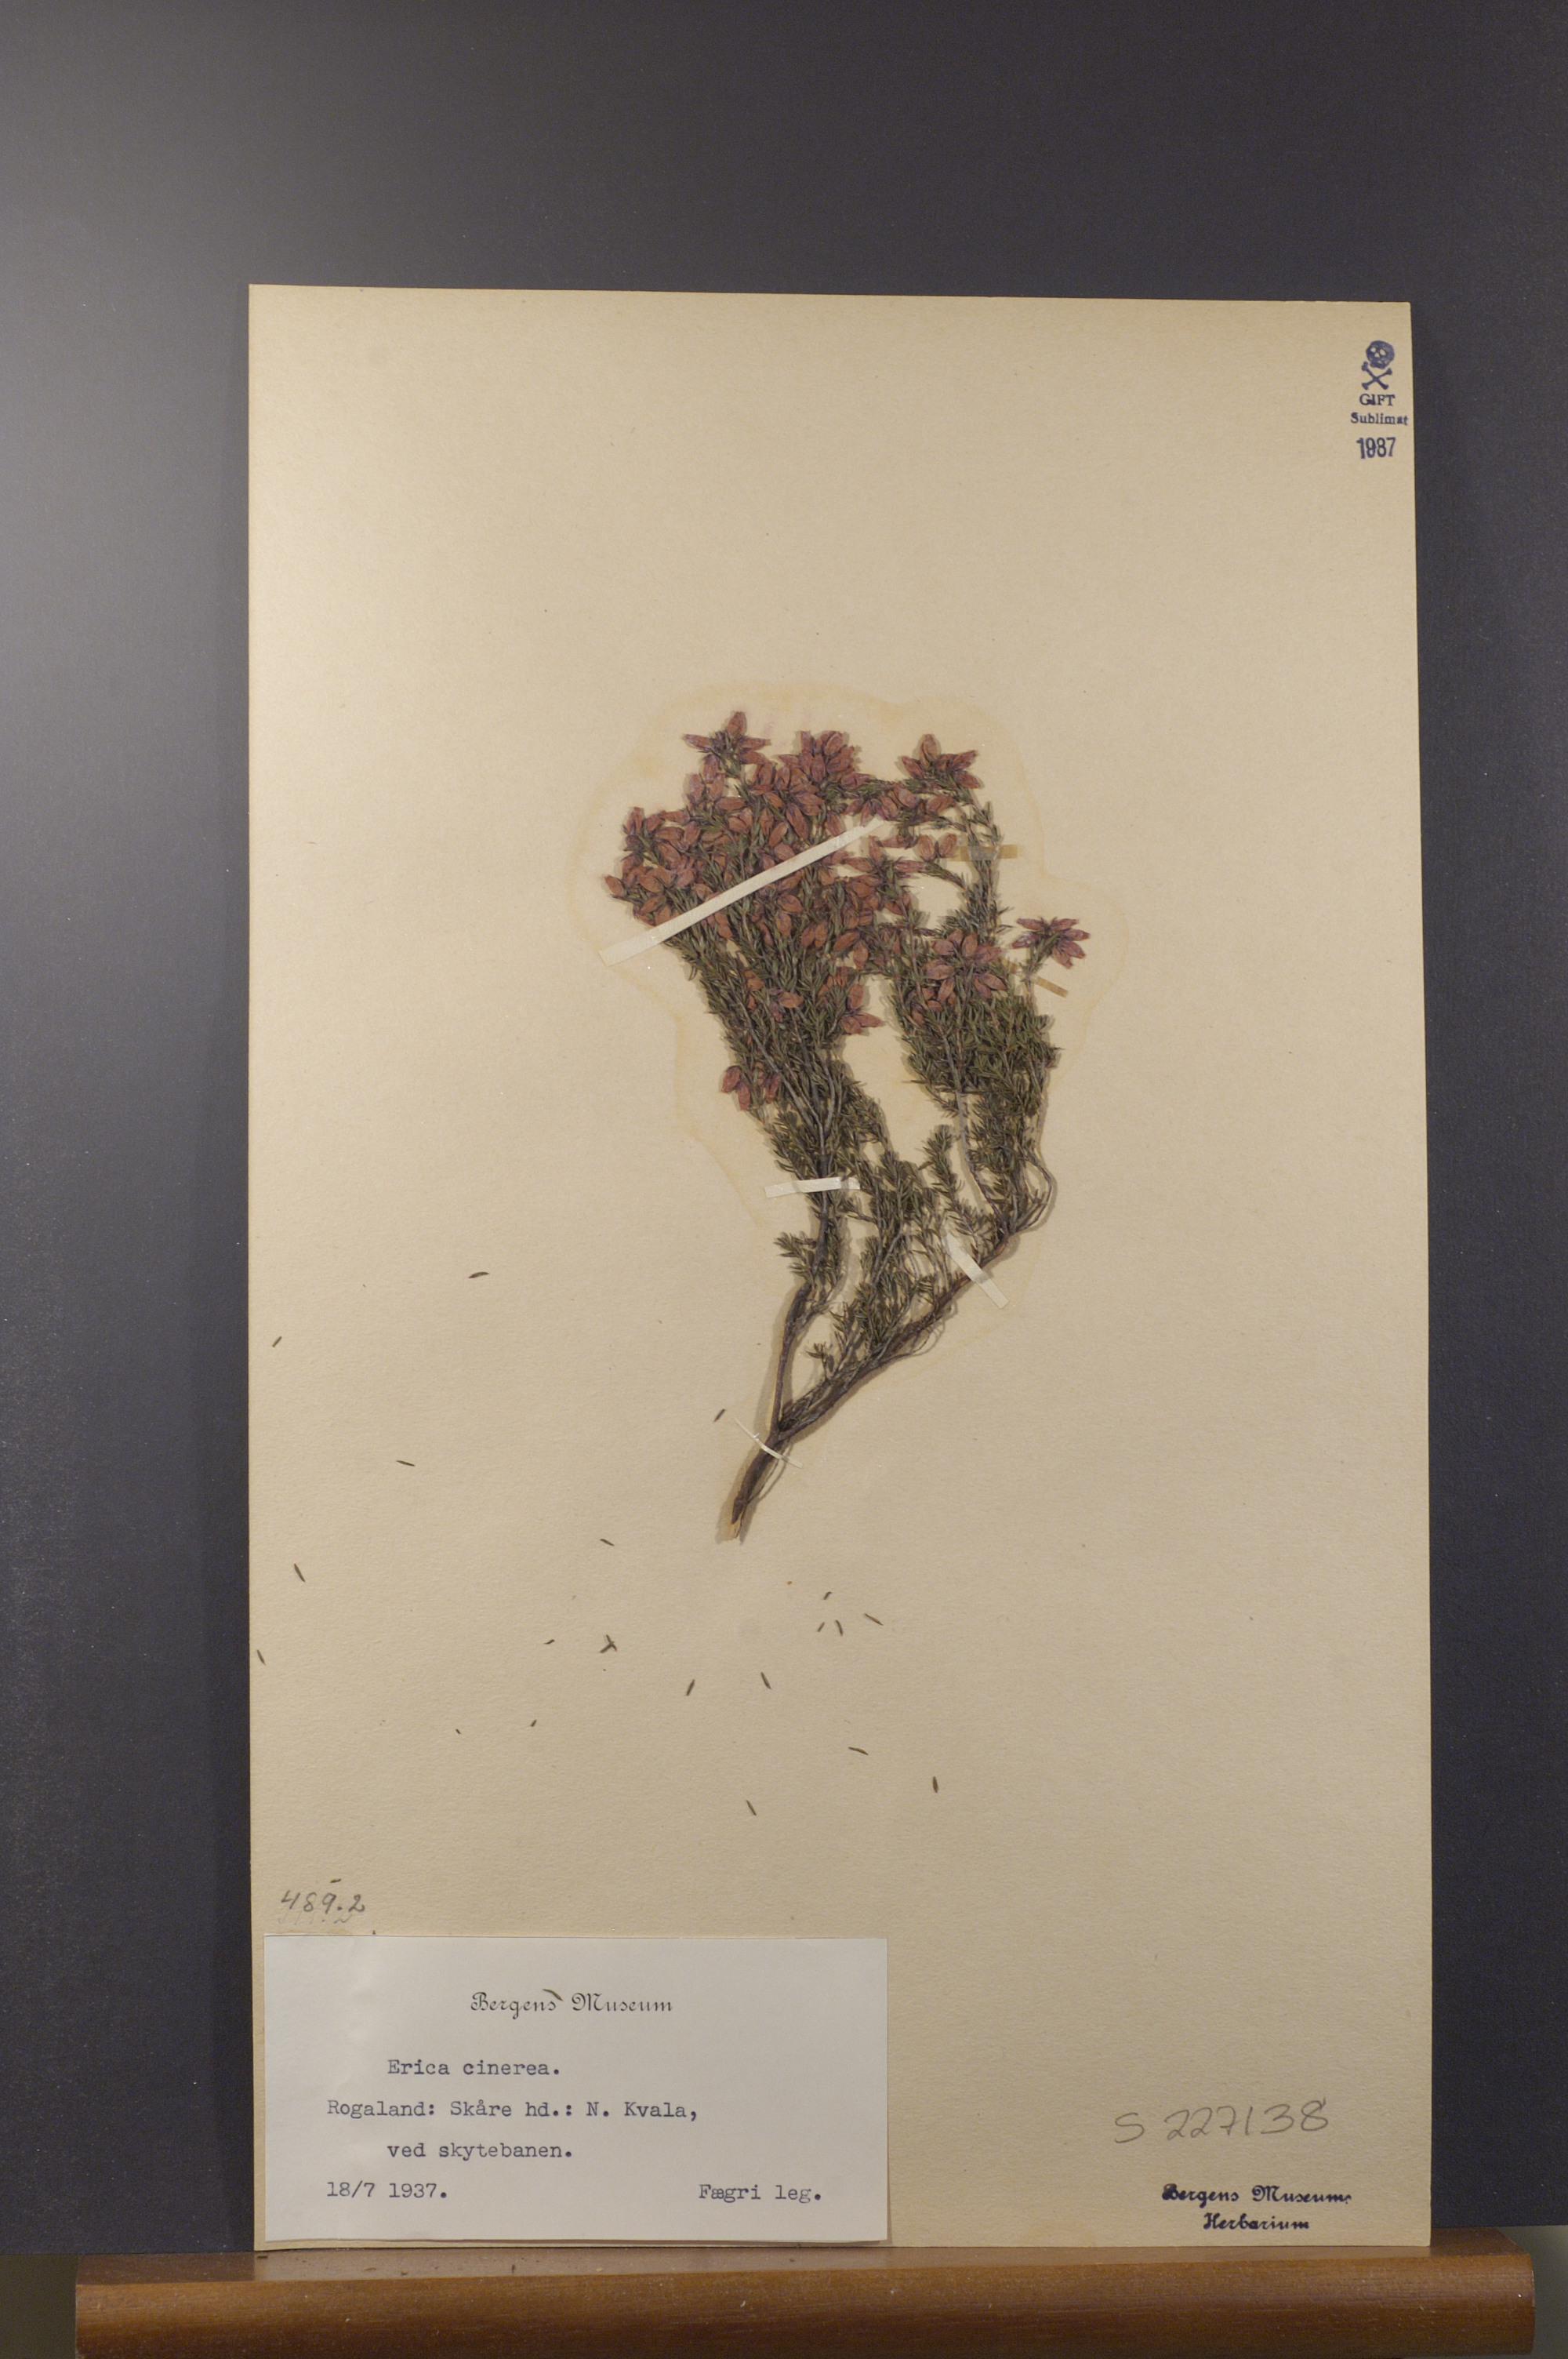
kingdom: Plantae
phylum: Tracheophyta
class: Magnoliopsida
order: Ericales
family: Ericaceae
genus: Erica
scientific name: Erica cinerea
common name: Bell heather
